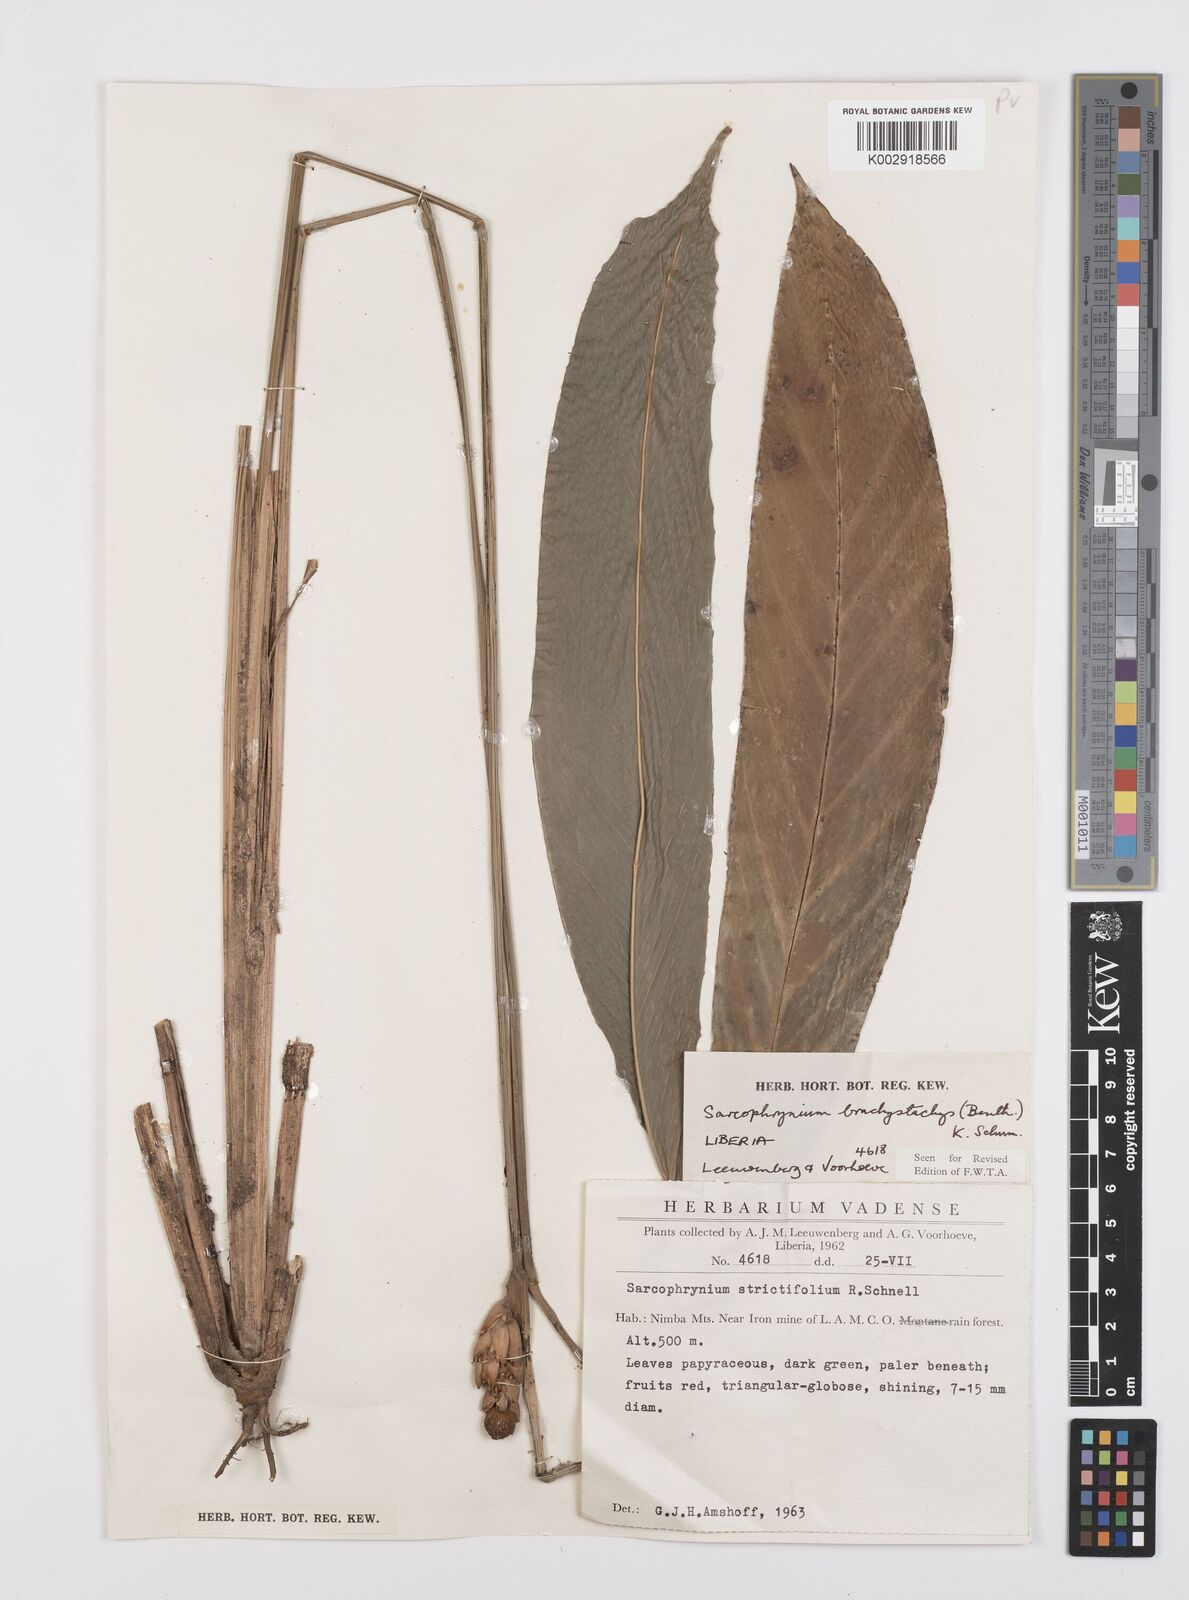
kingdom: Plantae
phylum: Tracheophyta
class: Liliopsida
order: Zingiberales
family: Marantaceae
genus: Sarcophrynium
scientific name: Sarcophrynium brachystachyum
